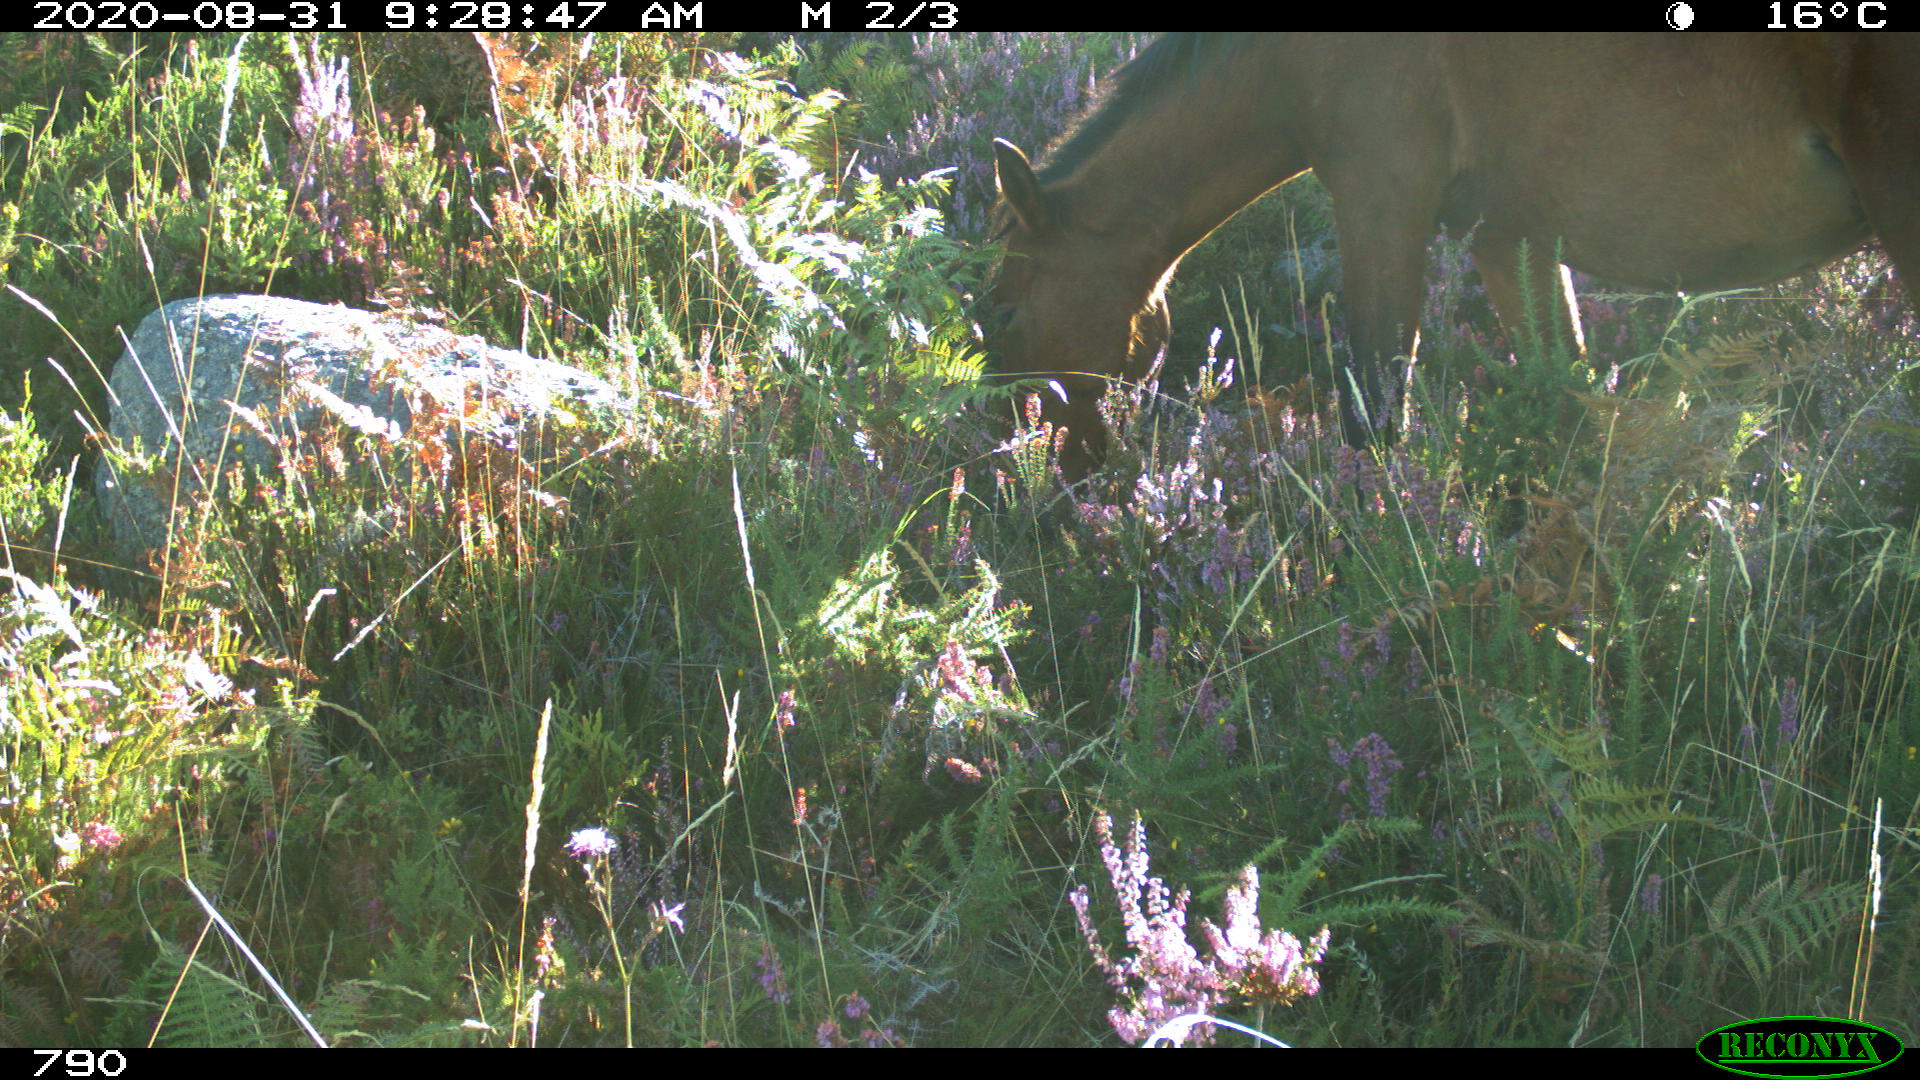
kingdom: Animalia
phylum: Chordata
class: Mammalia
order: Perissodactyla
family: Equidae
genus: Equus
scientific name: Equus caballus
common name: Horse
